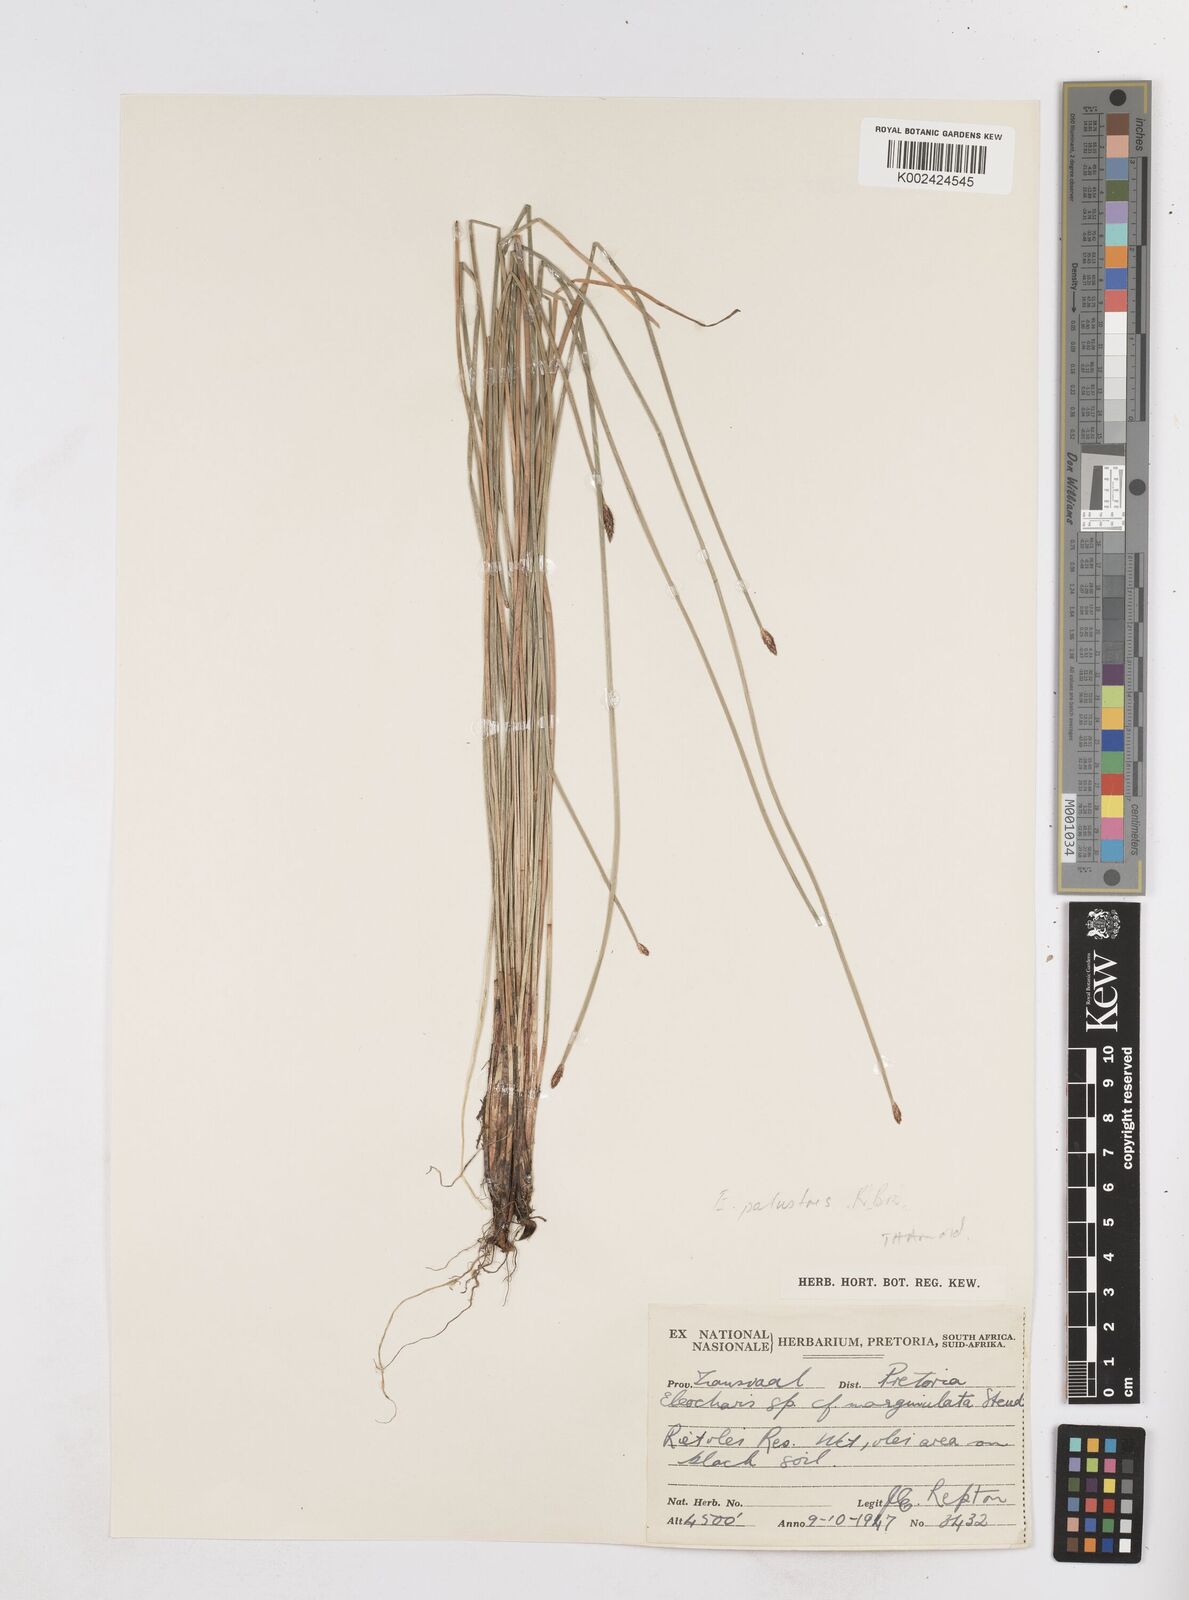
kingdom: Plantae
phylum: Tracheophyta
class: Liliopsida
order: Poales
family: Cyperaceae
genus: Eleocharis
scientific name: Eleocharis palustris
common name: Common spike-rush
